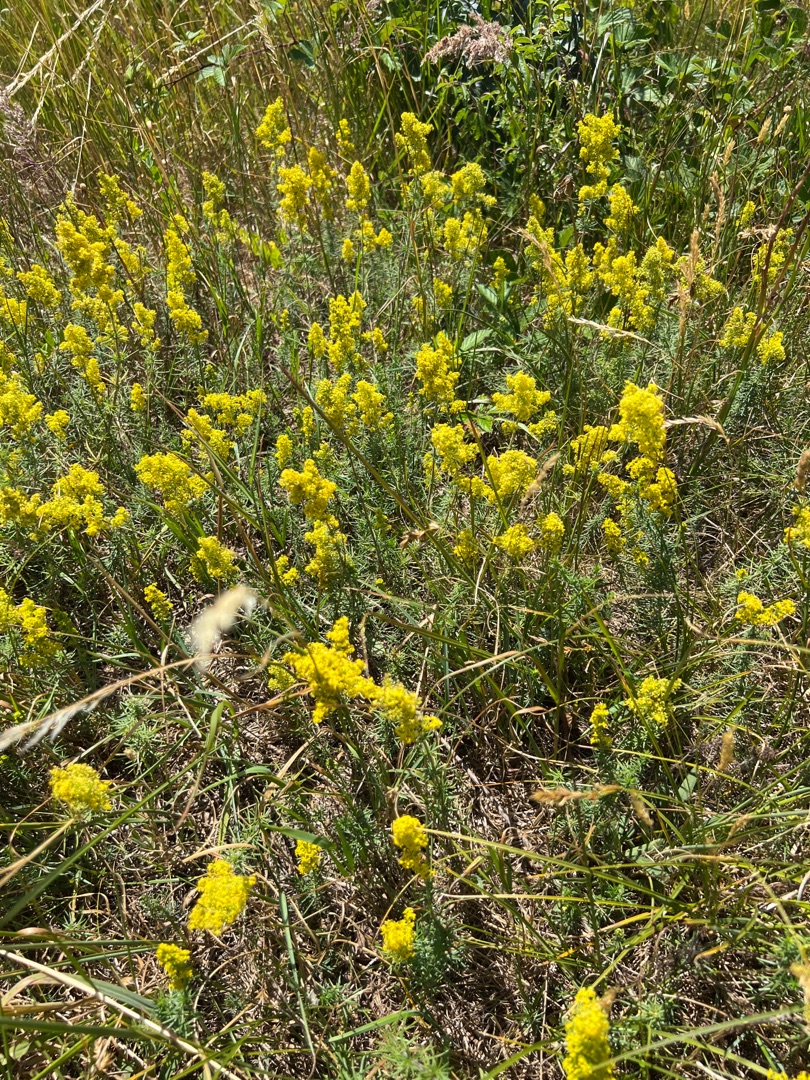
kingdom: Plantae
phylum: Tracheophyta
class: Magnoliopsida
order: Gentianales
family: Rubiaceae
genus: Galium
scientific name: Galium verum
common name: Gul snerre
